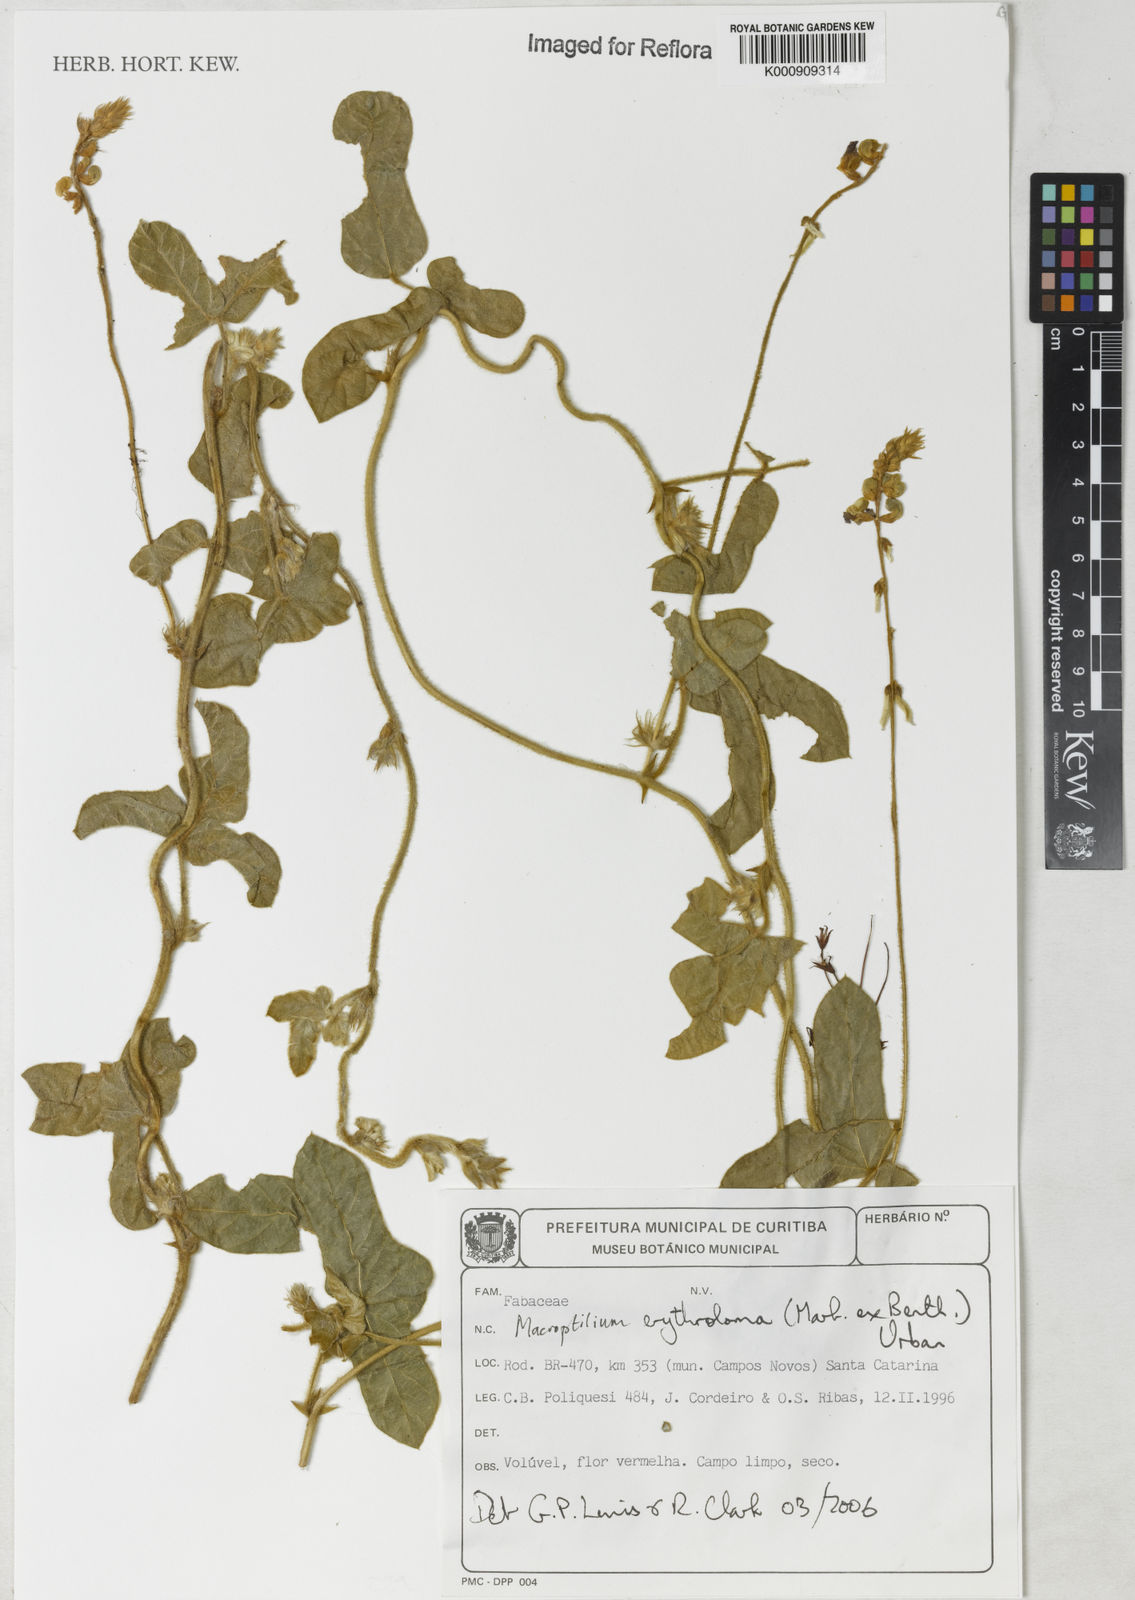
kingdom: Plantae
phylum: Tracheophyta
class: Magnoliopsida
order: Fabales
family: Fabaceae
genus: Macroptilium
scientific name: Macroptilium erythroloma
